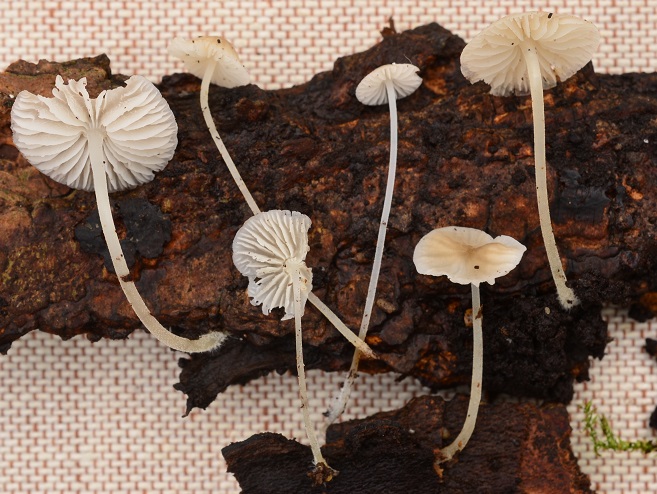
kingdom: Fungi
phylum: Basidiomycota
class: Agaricomycetes
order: Agaricales
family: Porotheleaceae
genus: Phloeomana
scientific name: Phloeomana hiemalis
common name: sen huesvamp
